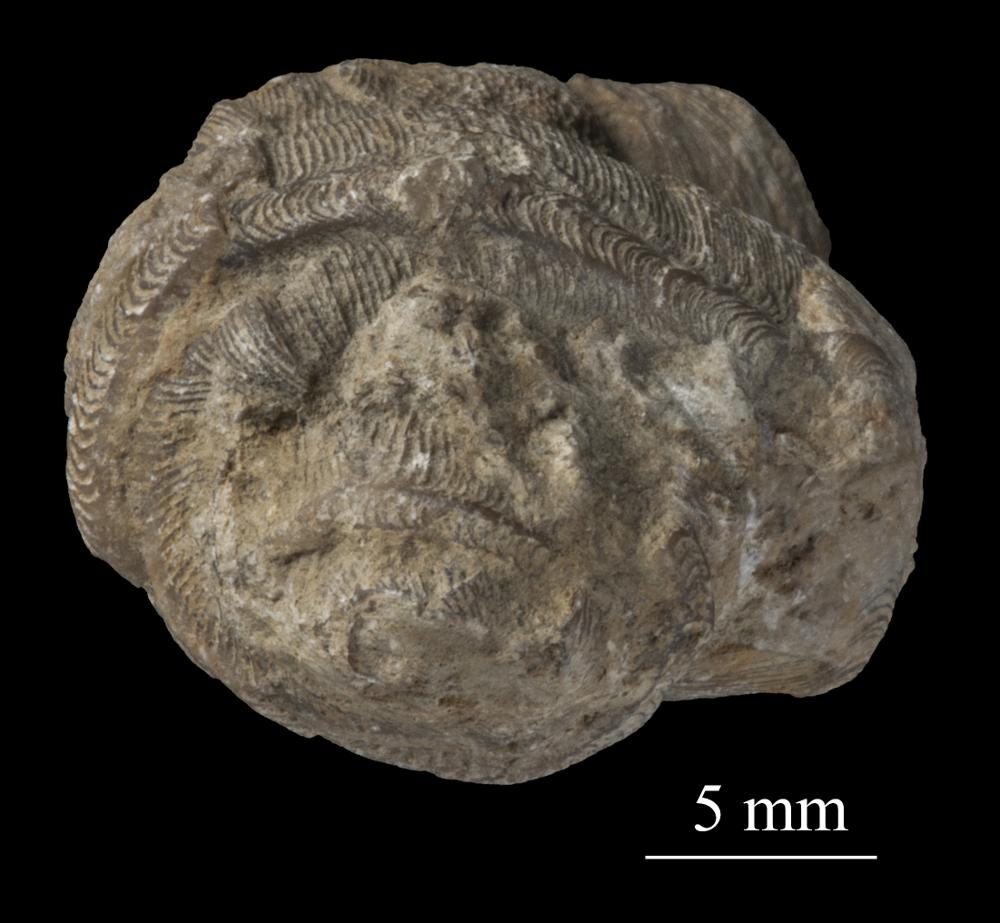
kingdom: Animalia
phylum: Mollusca
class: Gastropoda
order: Pleurotomariida
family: Phanerotrematidae
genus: Brachytomaria
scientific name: Brachytomaria nodulosa
